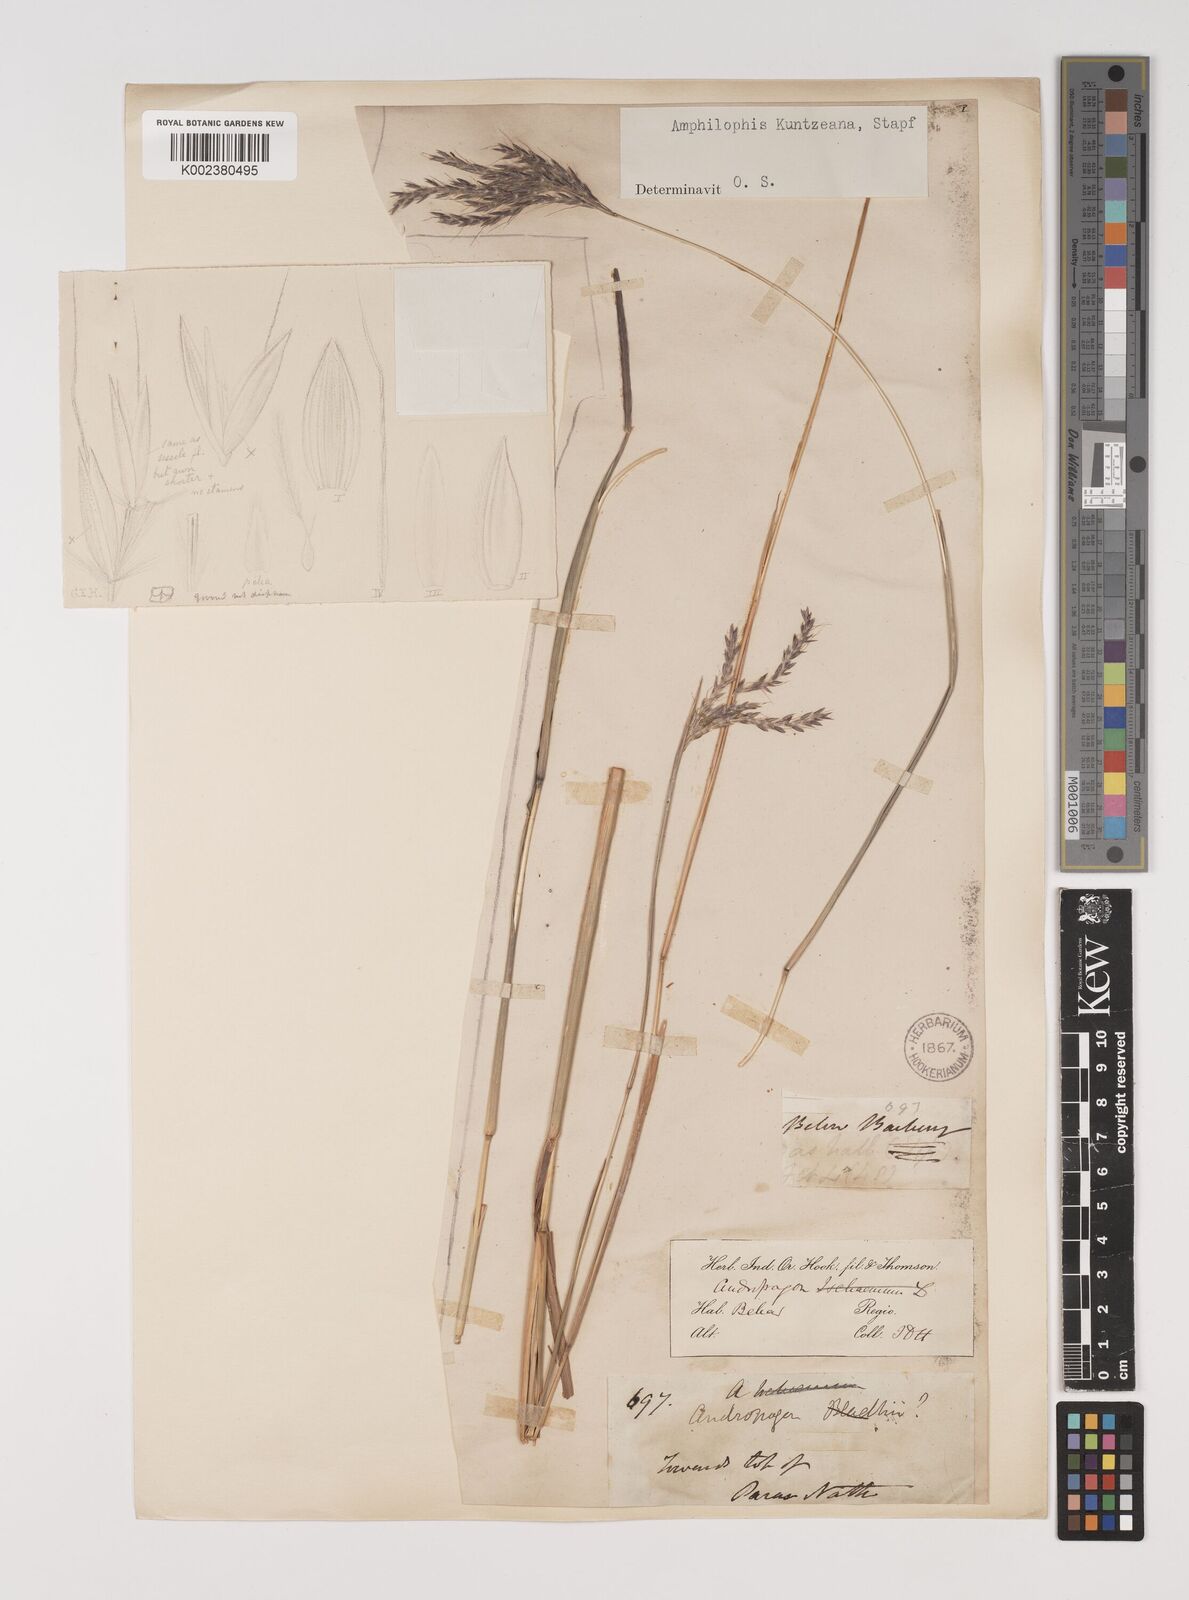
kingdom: Plantae
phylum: Tracheophyta
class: Liliopsida
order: Poales
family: Poaceae
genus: Bothriochloa
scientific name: Bothriochloa kuntzeana
